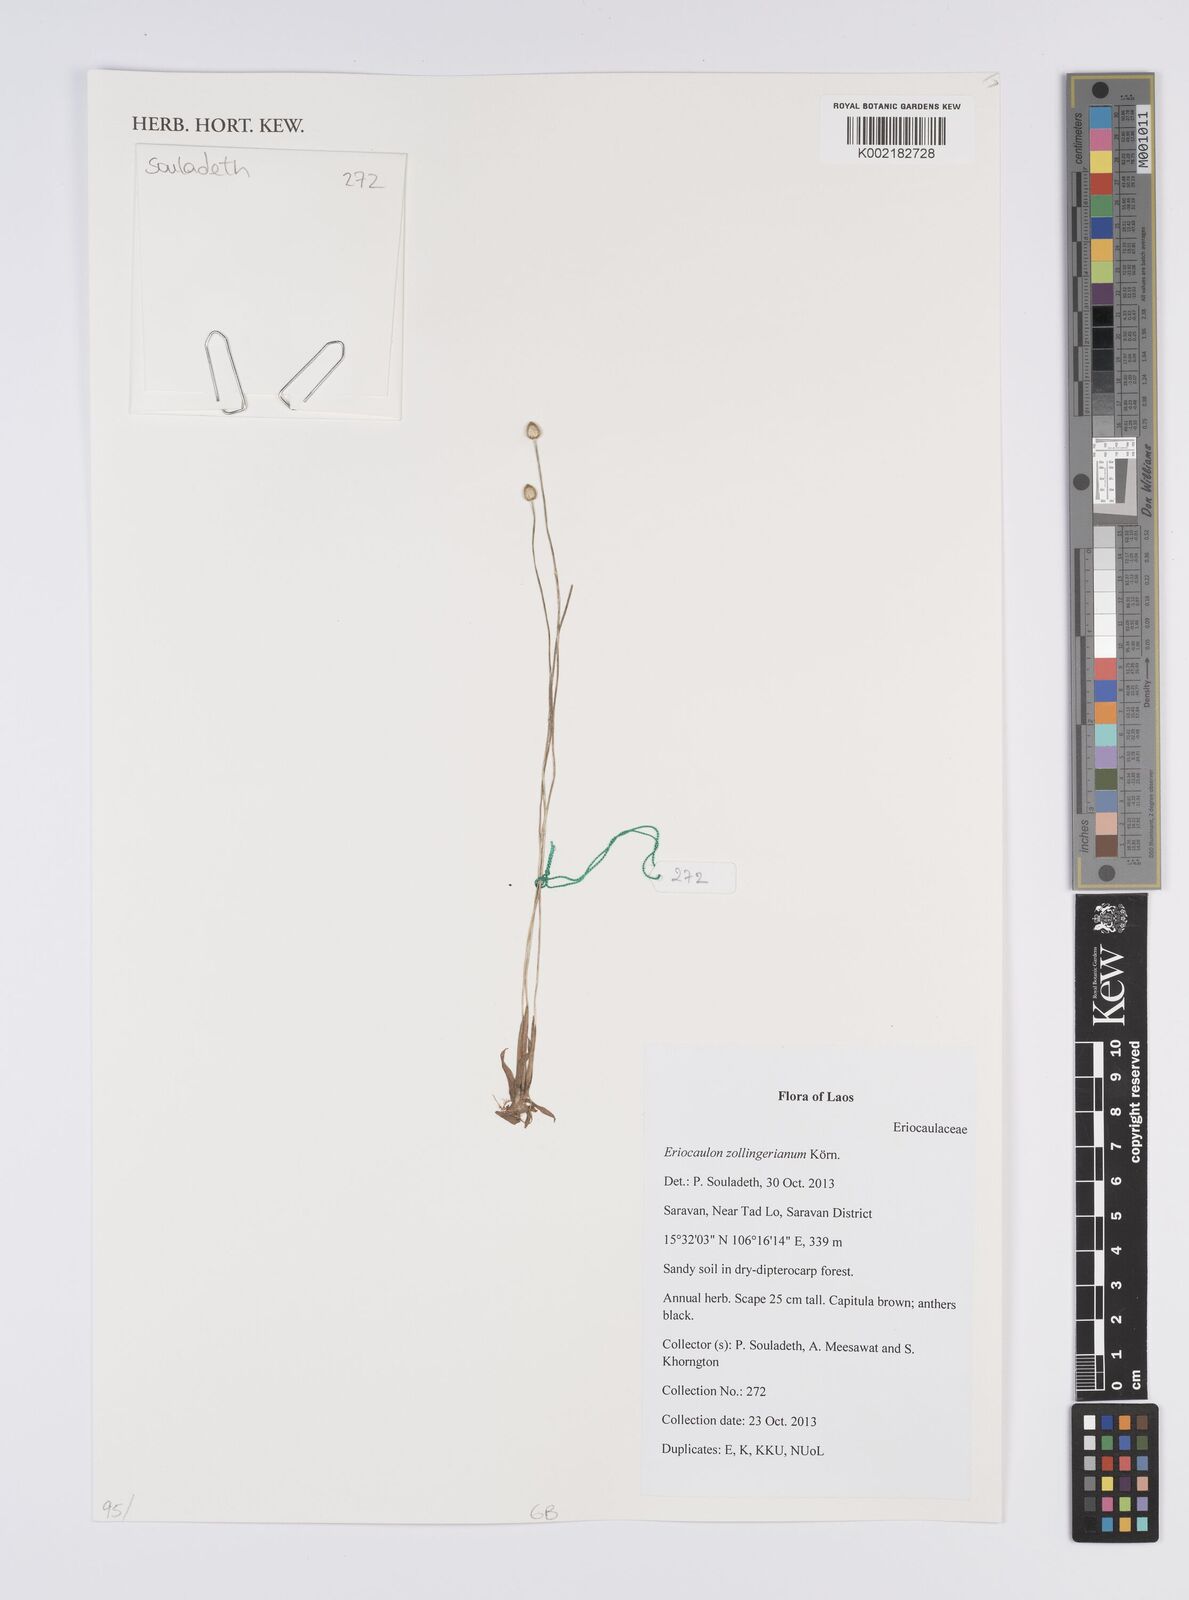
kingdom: Plantae
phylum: Tracheophyta
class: Liliopsida
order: Poales
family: Eriocaulaceae
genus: Eriocaulon
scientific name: Eriocaulon zollingerianum
